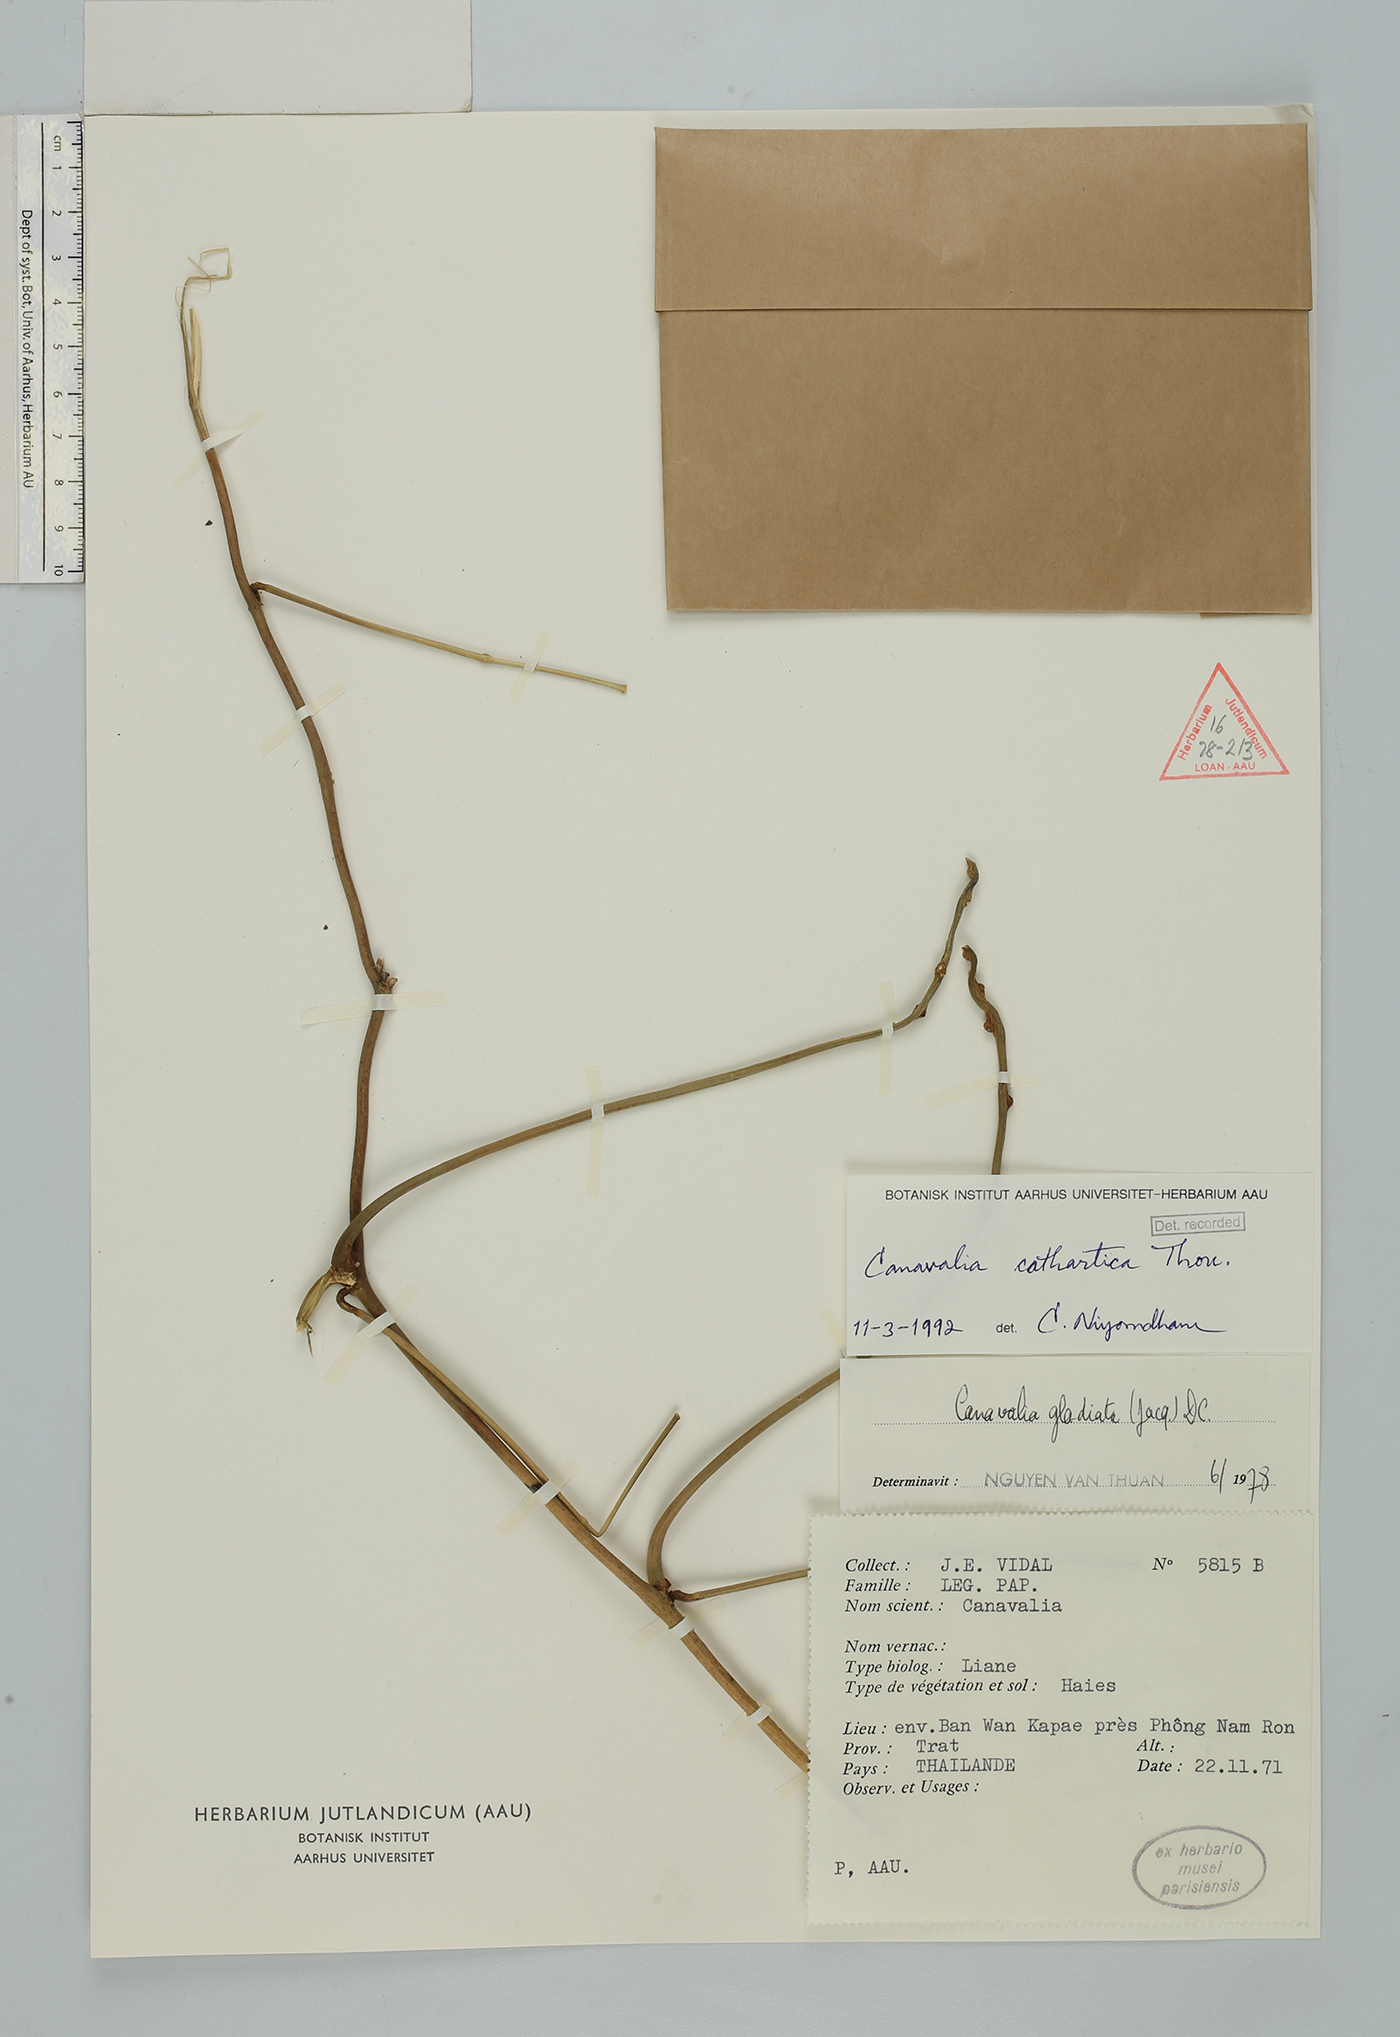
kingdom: Plantae
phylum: Tracheophyta
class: Magnoliopsida
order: Fabales
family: Fabaceae
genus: Canavalia
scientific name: Canavalia cathartica
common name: Maunaloa
